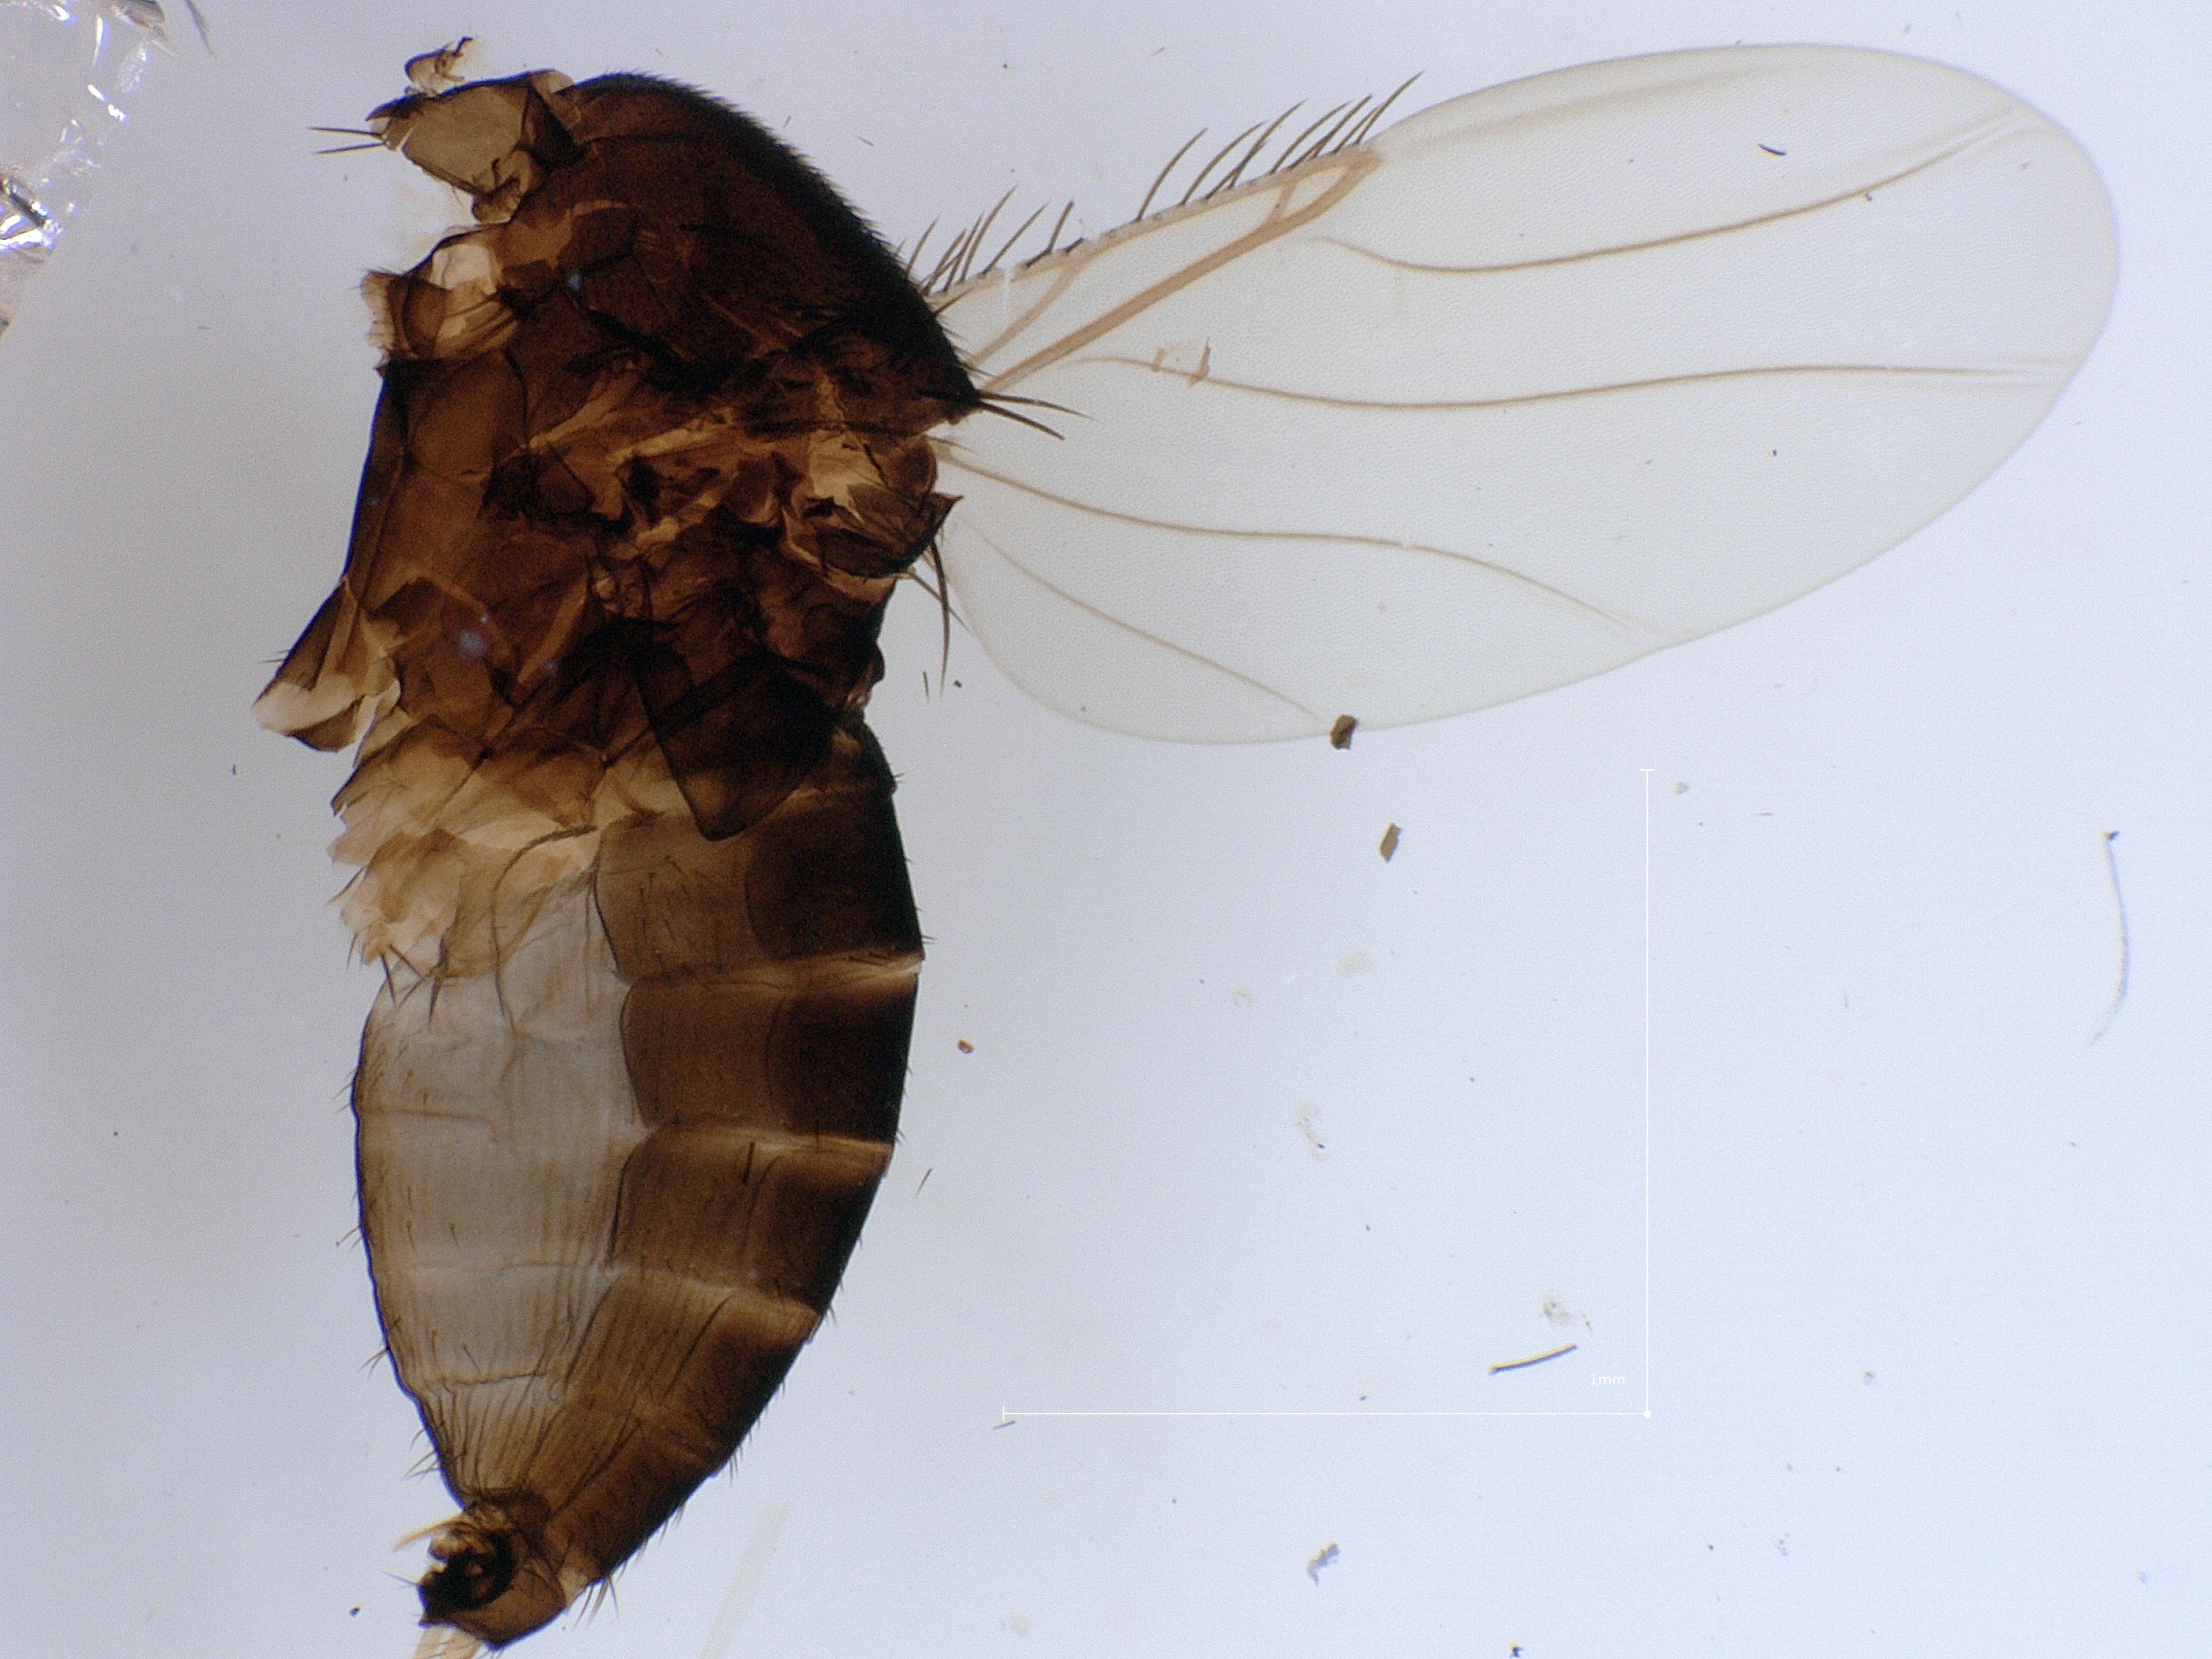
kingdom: Animalia
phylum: Arthropoda
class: Insecta
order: Diptera
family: Phoridae
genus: Megaselia
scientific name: Megaselia variana
